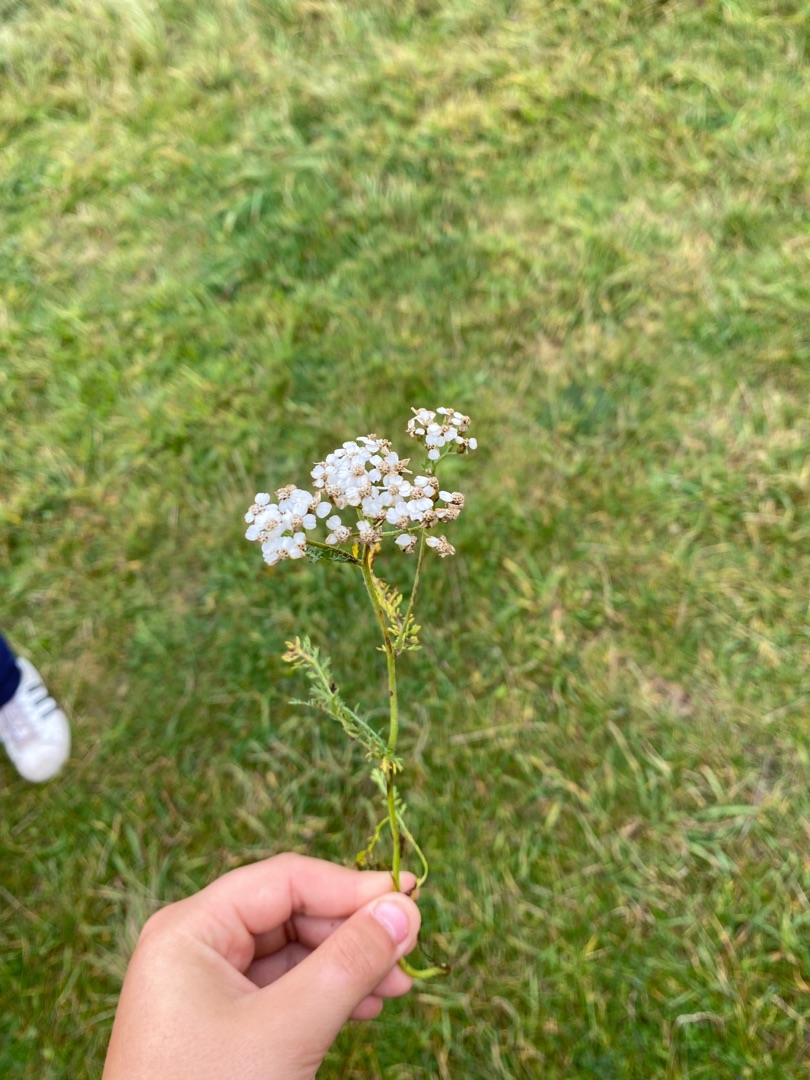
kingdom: Plantae
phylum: Tracheophyta
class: Magnoliopsida
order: Asterales
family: Asteraceae
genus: Achillea
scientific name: Achillea millefolium
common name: Almindelig røllike
